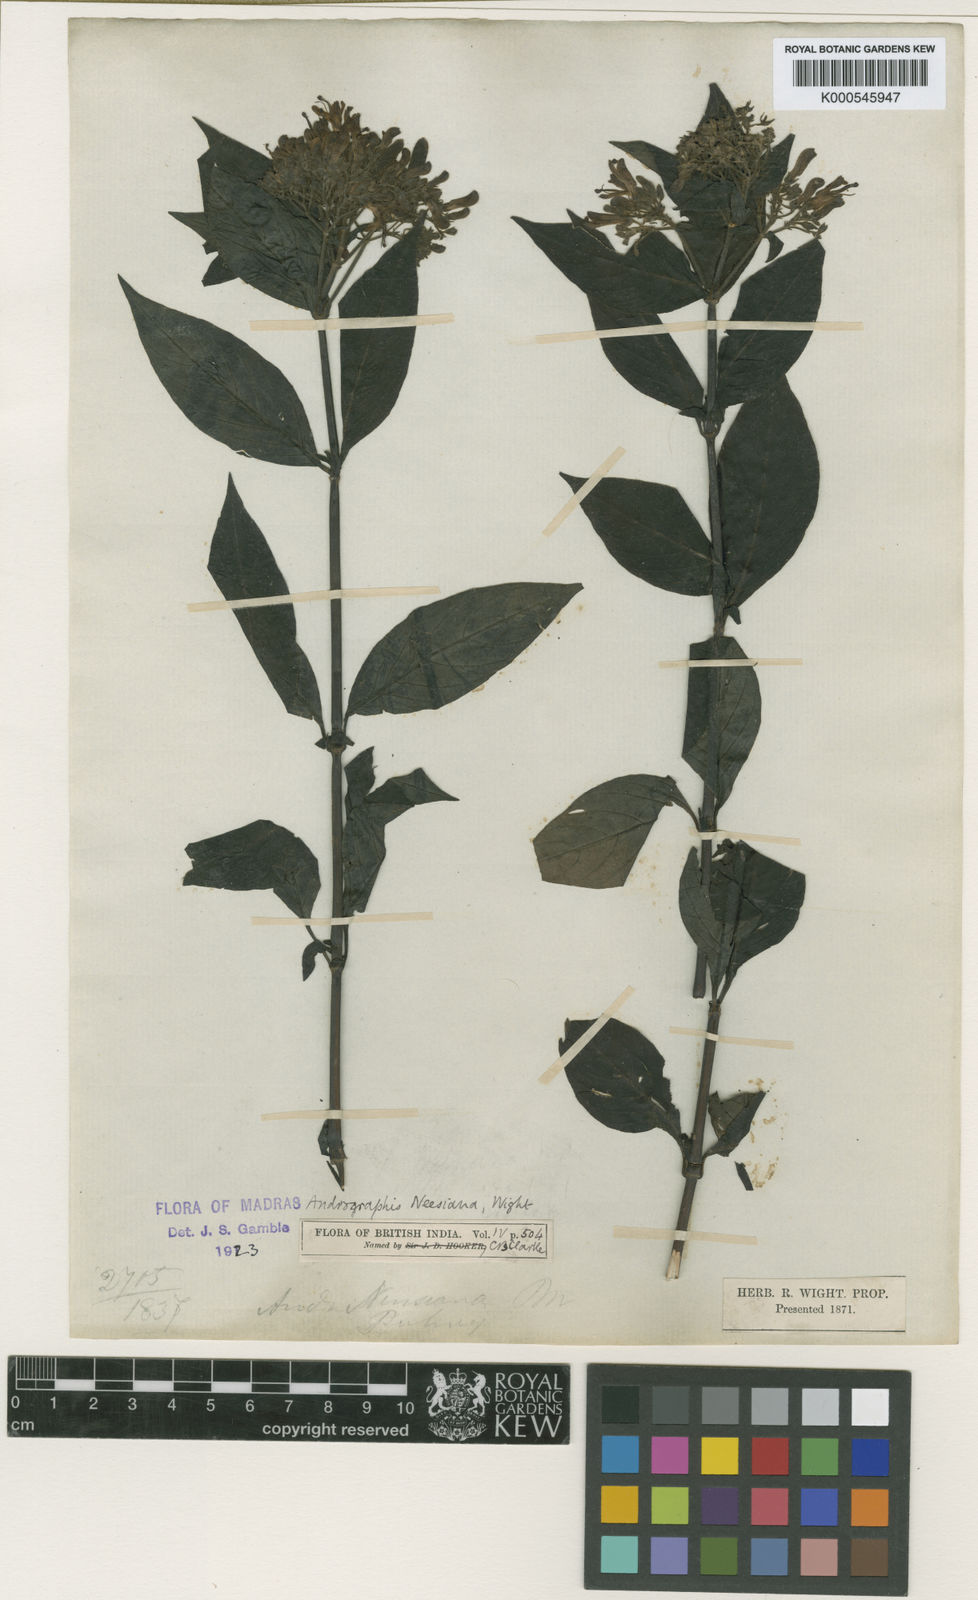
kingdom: Plantae
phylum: Tracheophyta
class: Magnoliopsida
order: Lamiales
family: Acanthaceae
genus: Andrographis
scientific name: Andrographis neesiana
